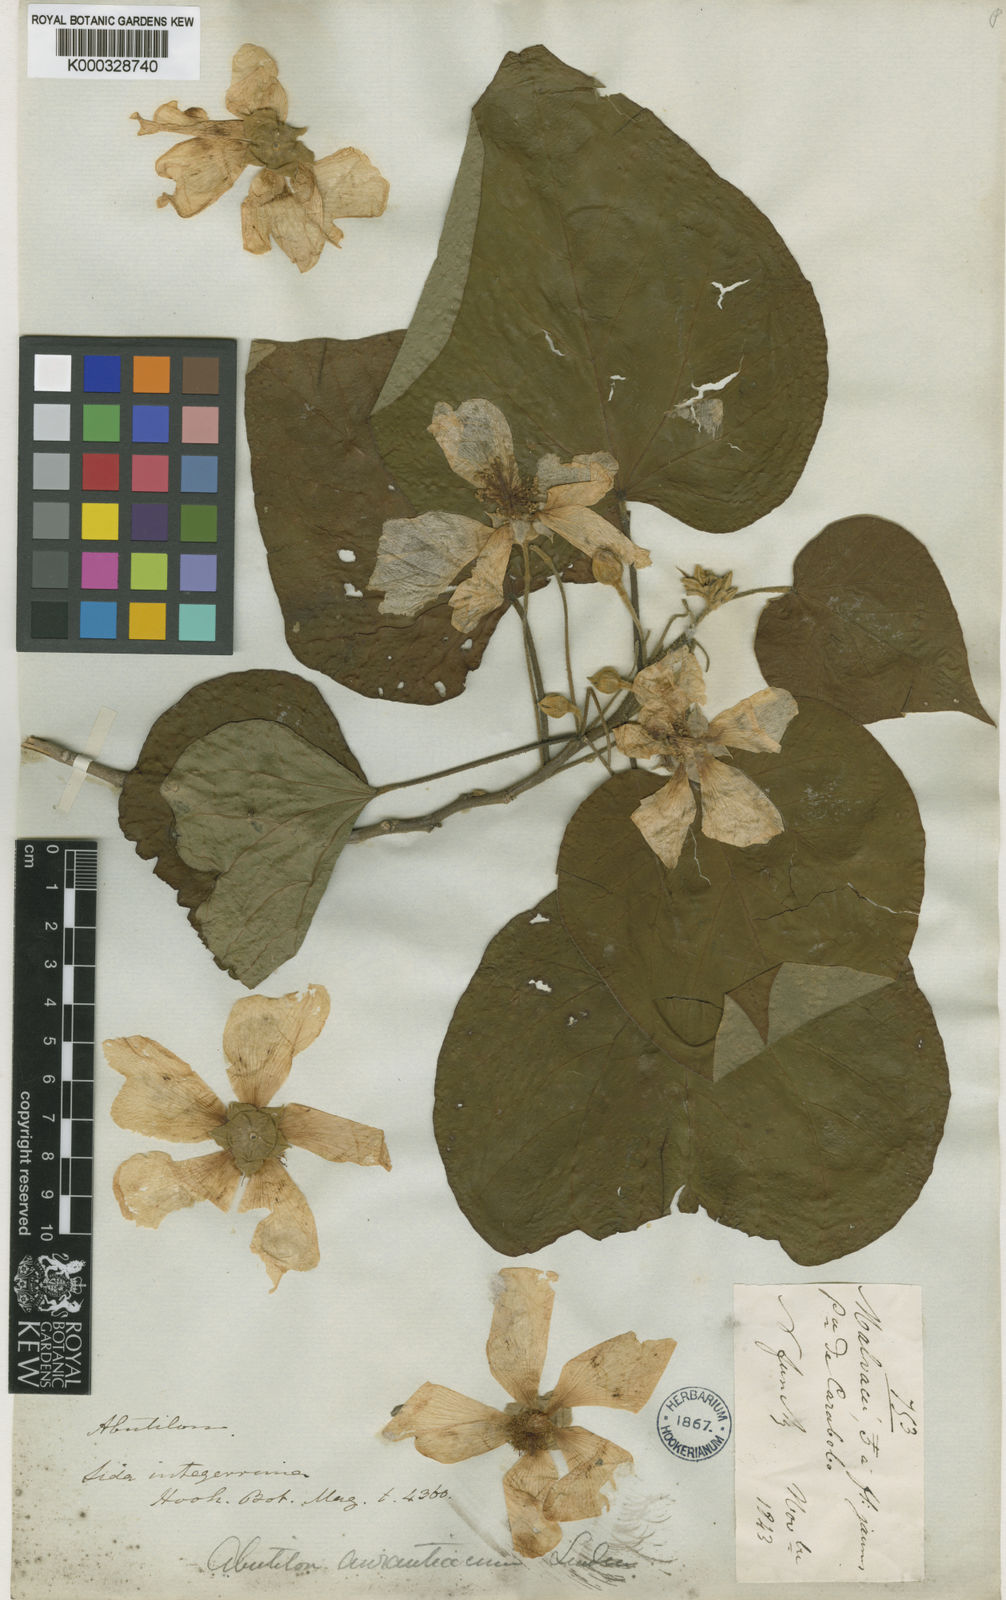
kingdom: Plantae
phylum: Tracheophyta
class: Magnoliopsida
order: Malvales
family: Malvaceae
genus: Bakeridesia
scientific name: Bakeridesia integerrima
